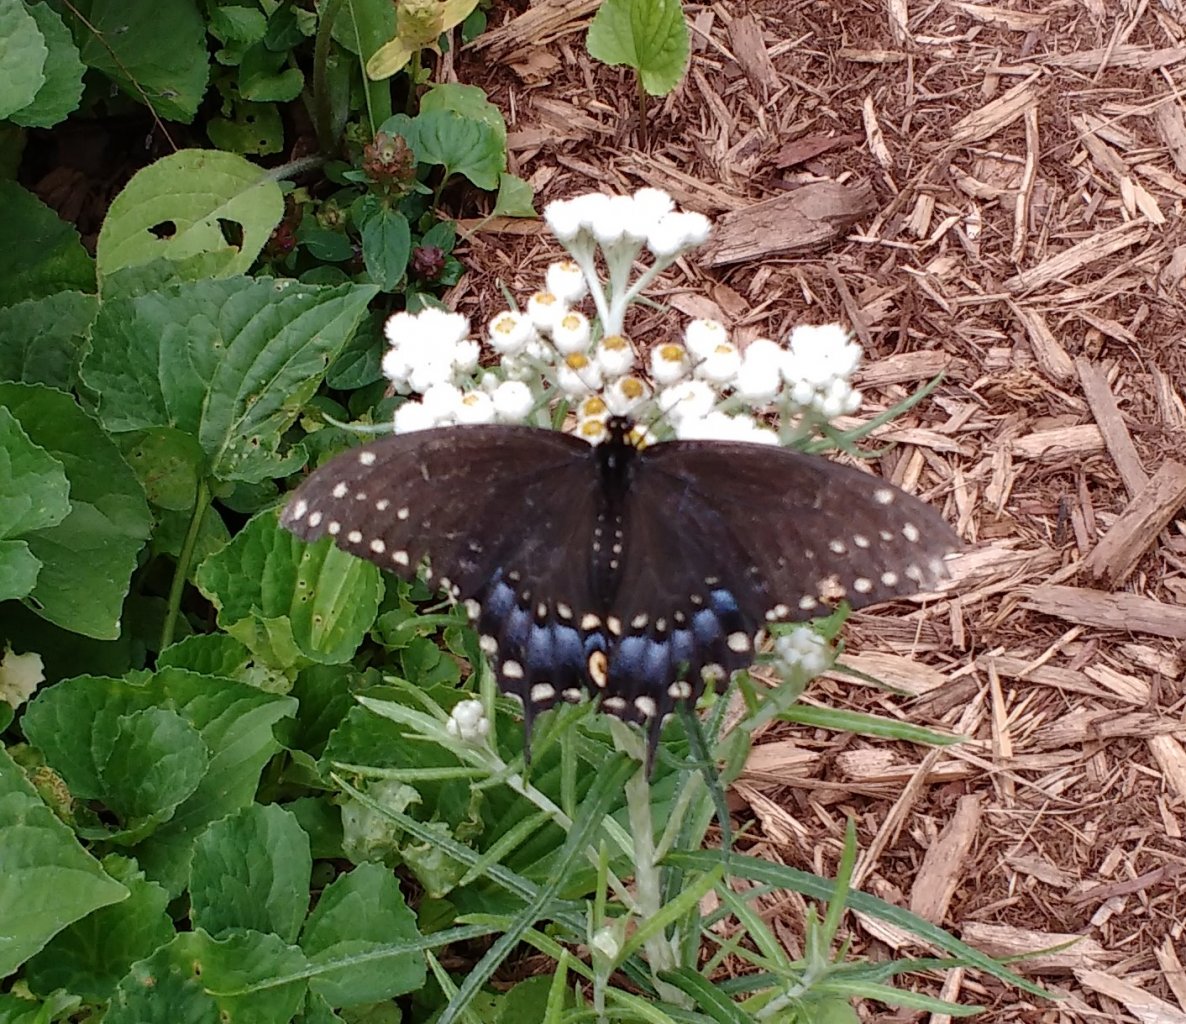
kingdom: Animalia
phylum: Arthropoda
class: Insecta
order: Lepidoptera
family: Papilionidae
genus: Papilio
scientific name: Papilio polyxenes
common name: Black Swallowtail
